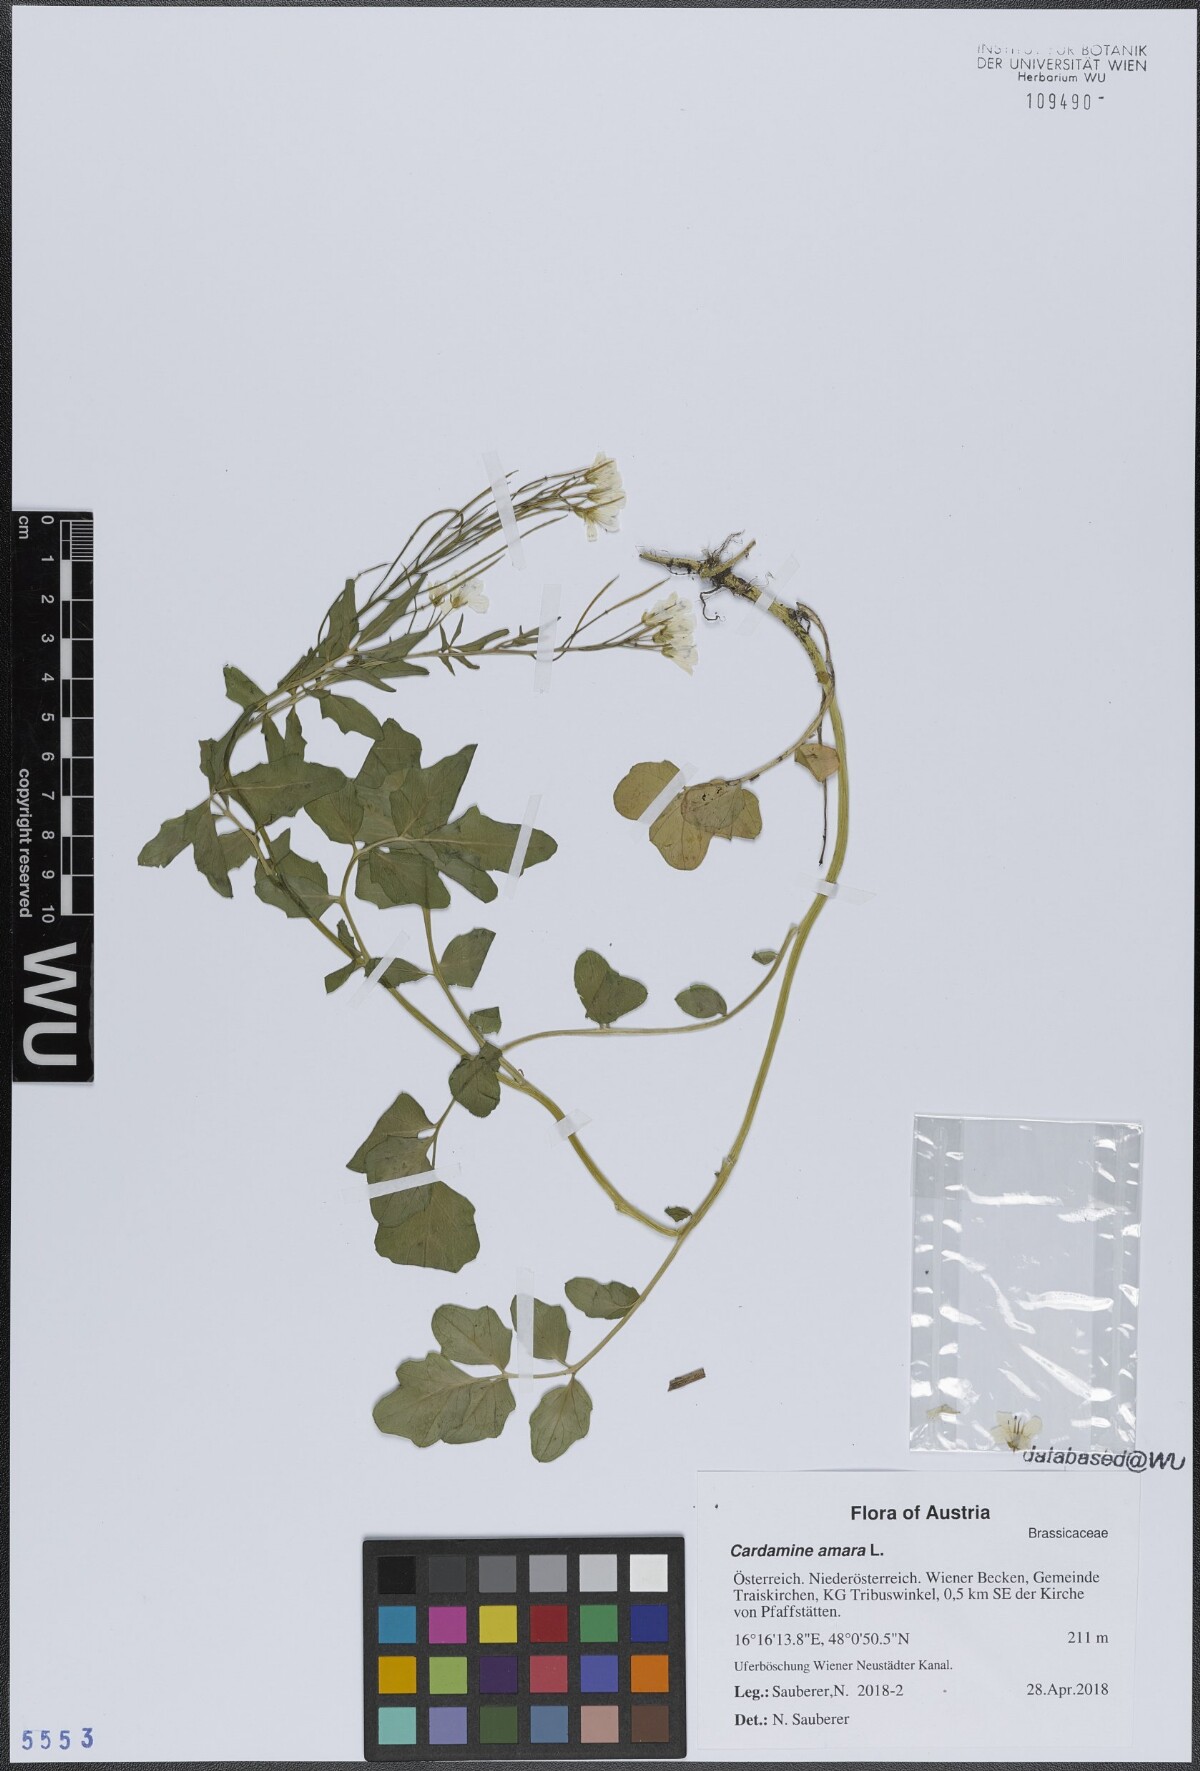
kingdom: Plantae
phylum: Tracheophyta
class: Magnoliopsida
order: Brassicales
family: Brassicaceae
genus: Cardamine
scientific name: Cardamine amara
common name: Large bitter-cress
